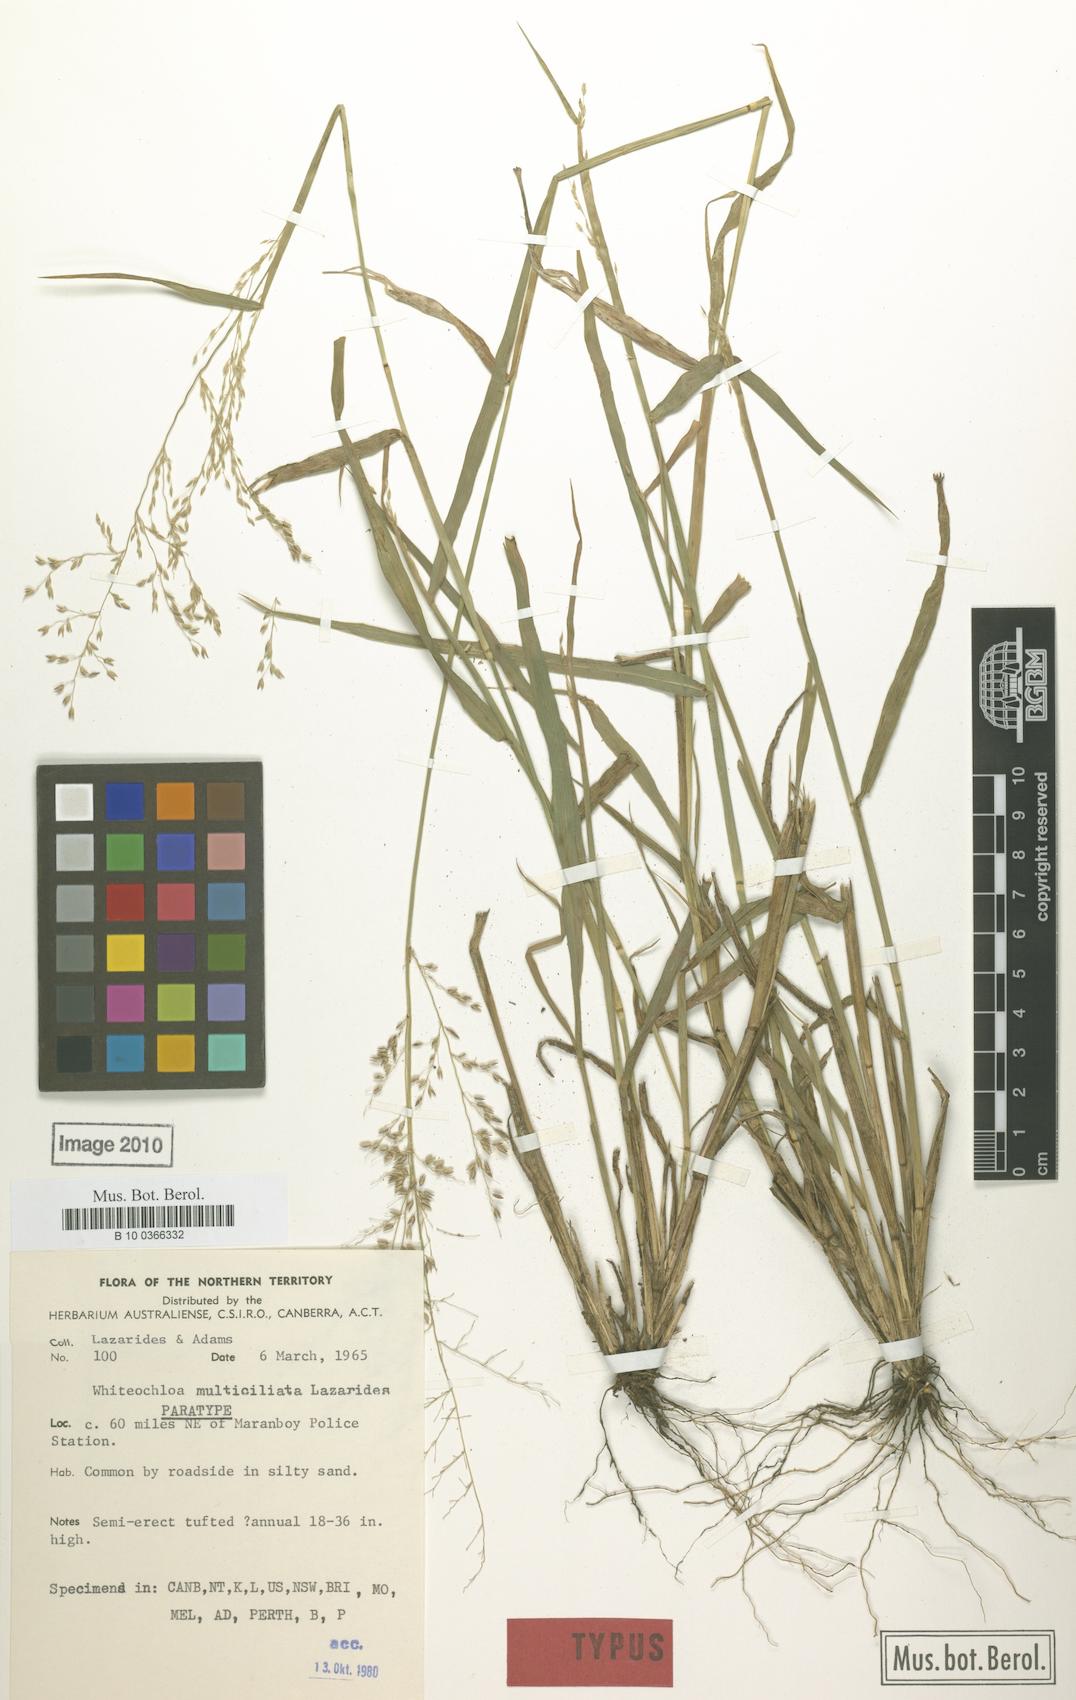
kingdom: Plantae
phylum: Tracheophyta
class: Liliopsida
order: Poales
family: Poaceae
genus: Whiteochloa
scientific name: Whiteochloa multiciliata
